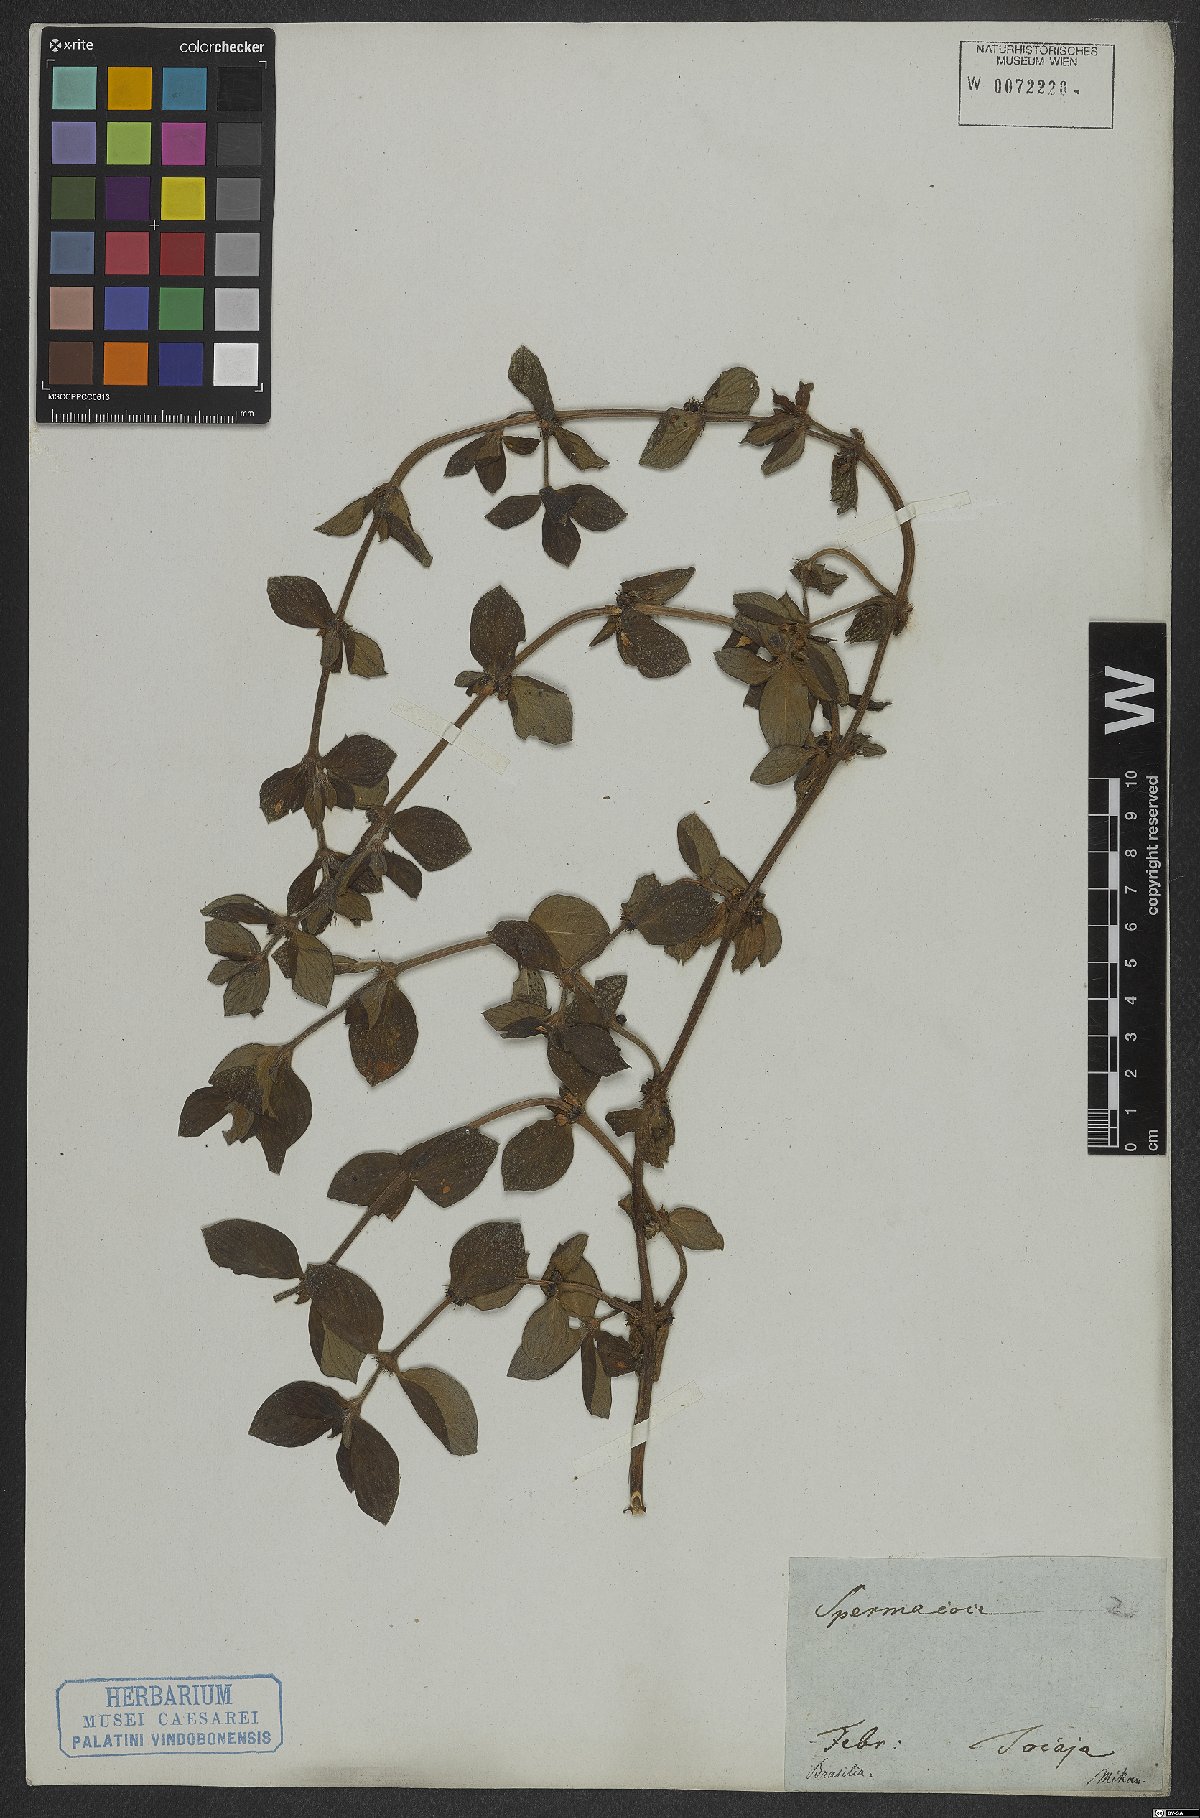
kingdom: Plantae
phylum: Tracheophyta
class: Magnoliopsida
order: Gentianales
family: Rubiaceae
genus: Hexasepalum
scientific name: Hexasepalum radulum
